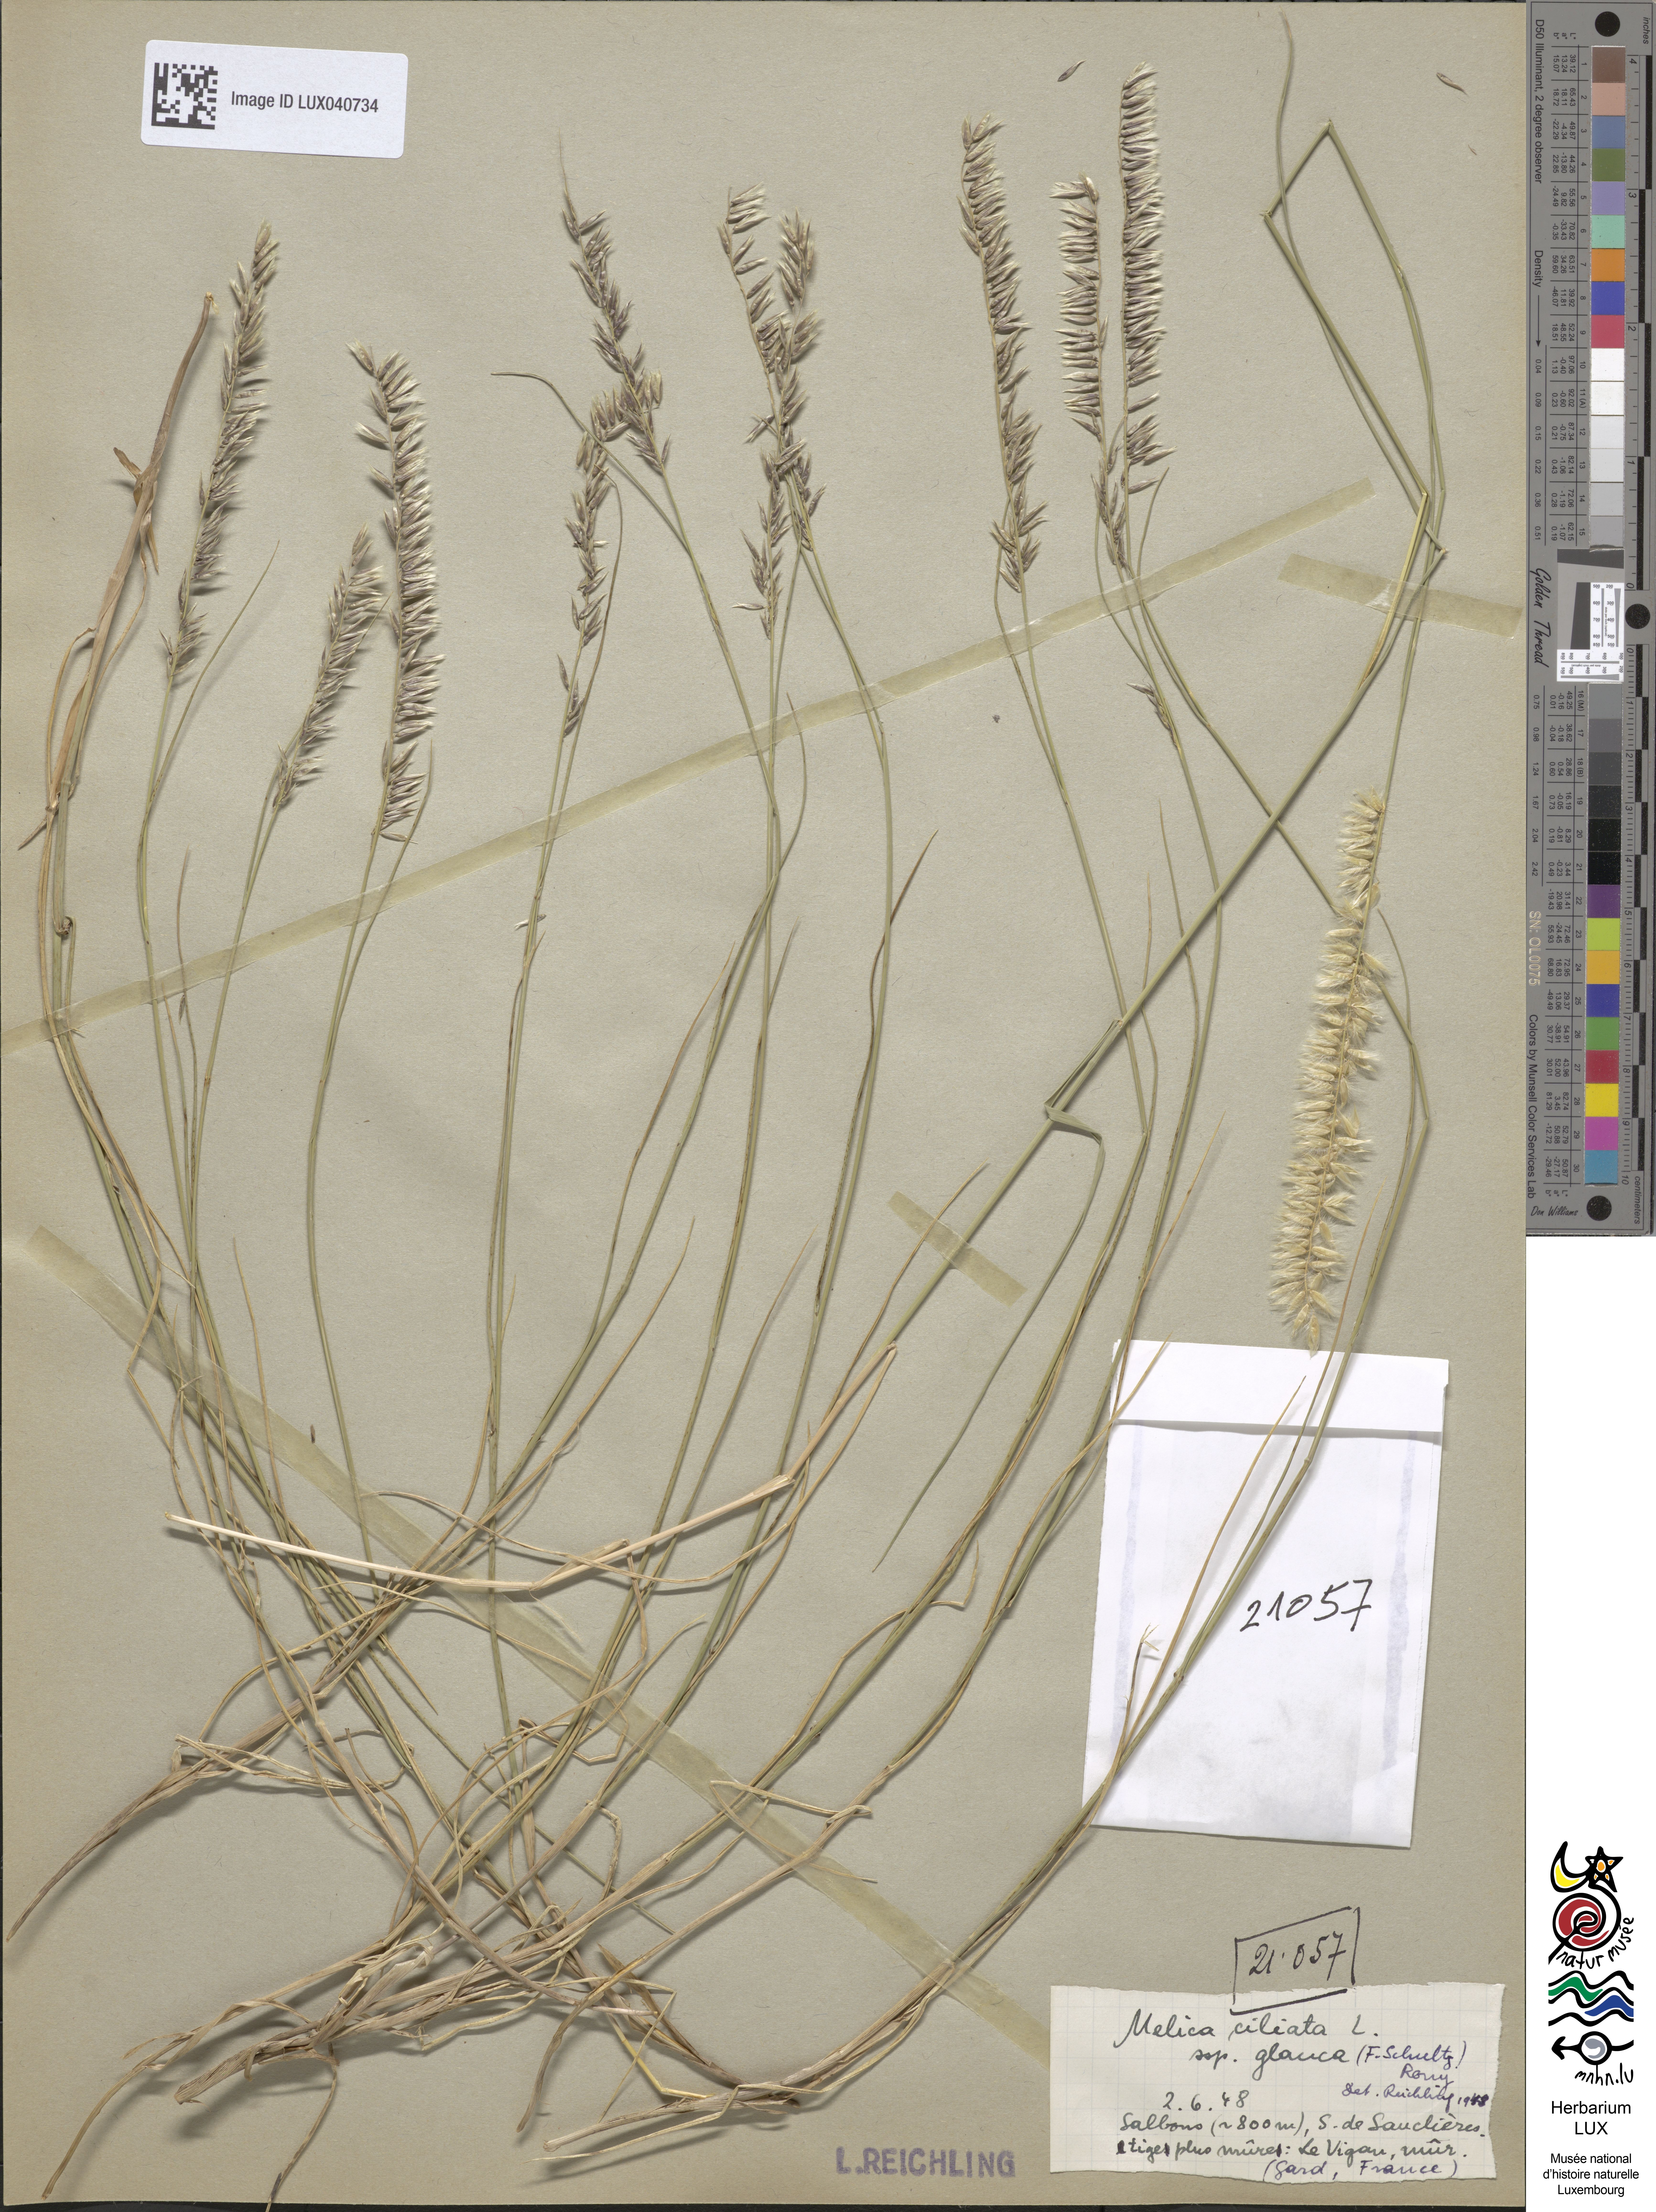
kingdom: Plantae
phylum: Tracheophyta
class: Liliopsida
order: Poales
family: Poaceae
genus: Melica
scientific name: Melica ciliata
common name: Hairy melicgrass
